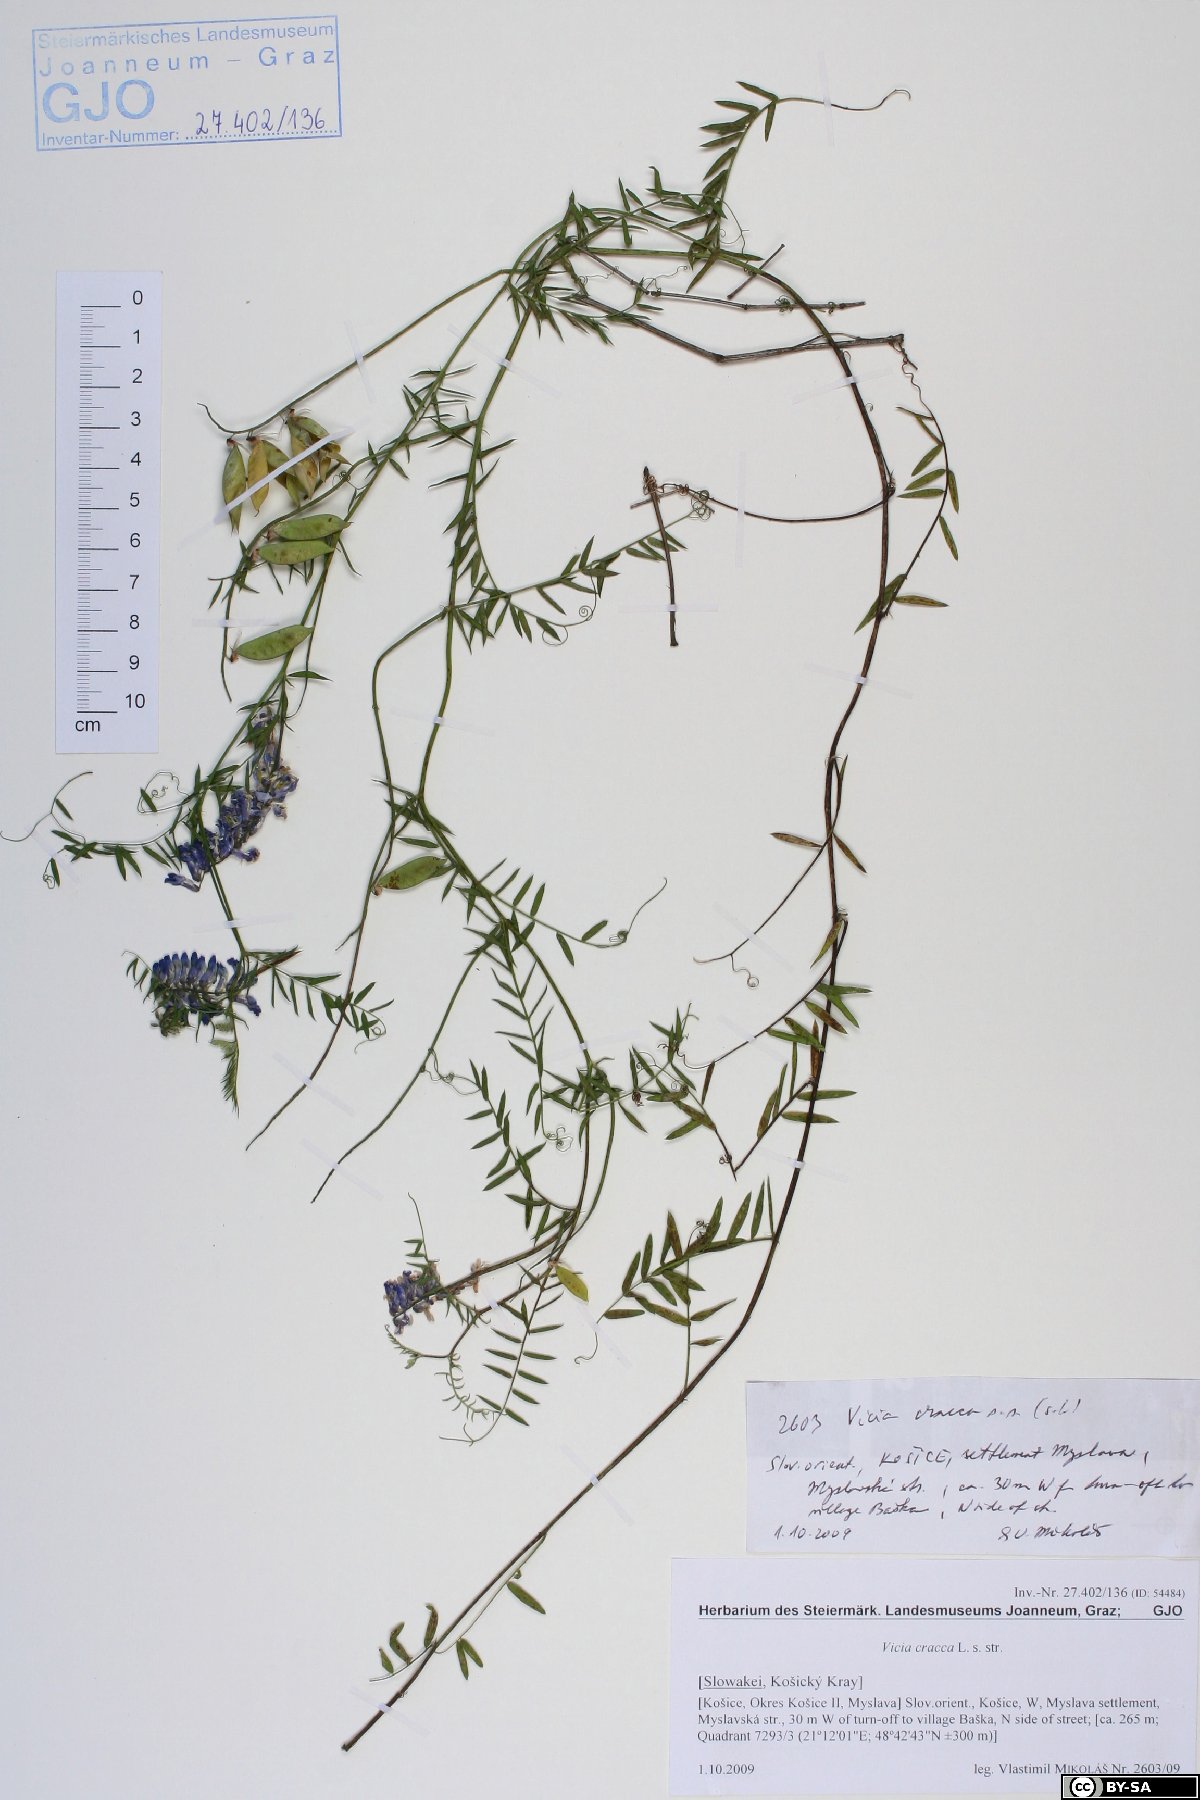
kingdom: Plantae
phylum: Tracheophyta
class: Magnoliopsida
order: Fabales
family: Fabaceae
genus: Vicia
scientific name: Vicia cracca
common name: Bird vetch
